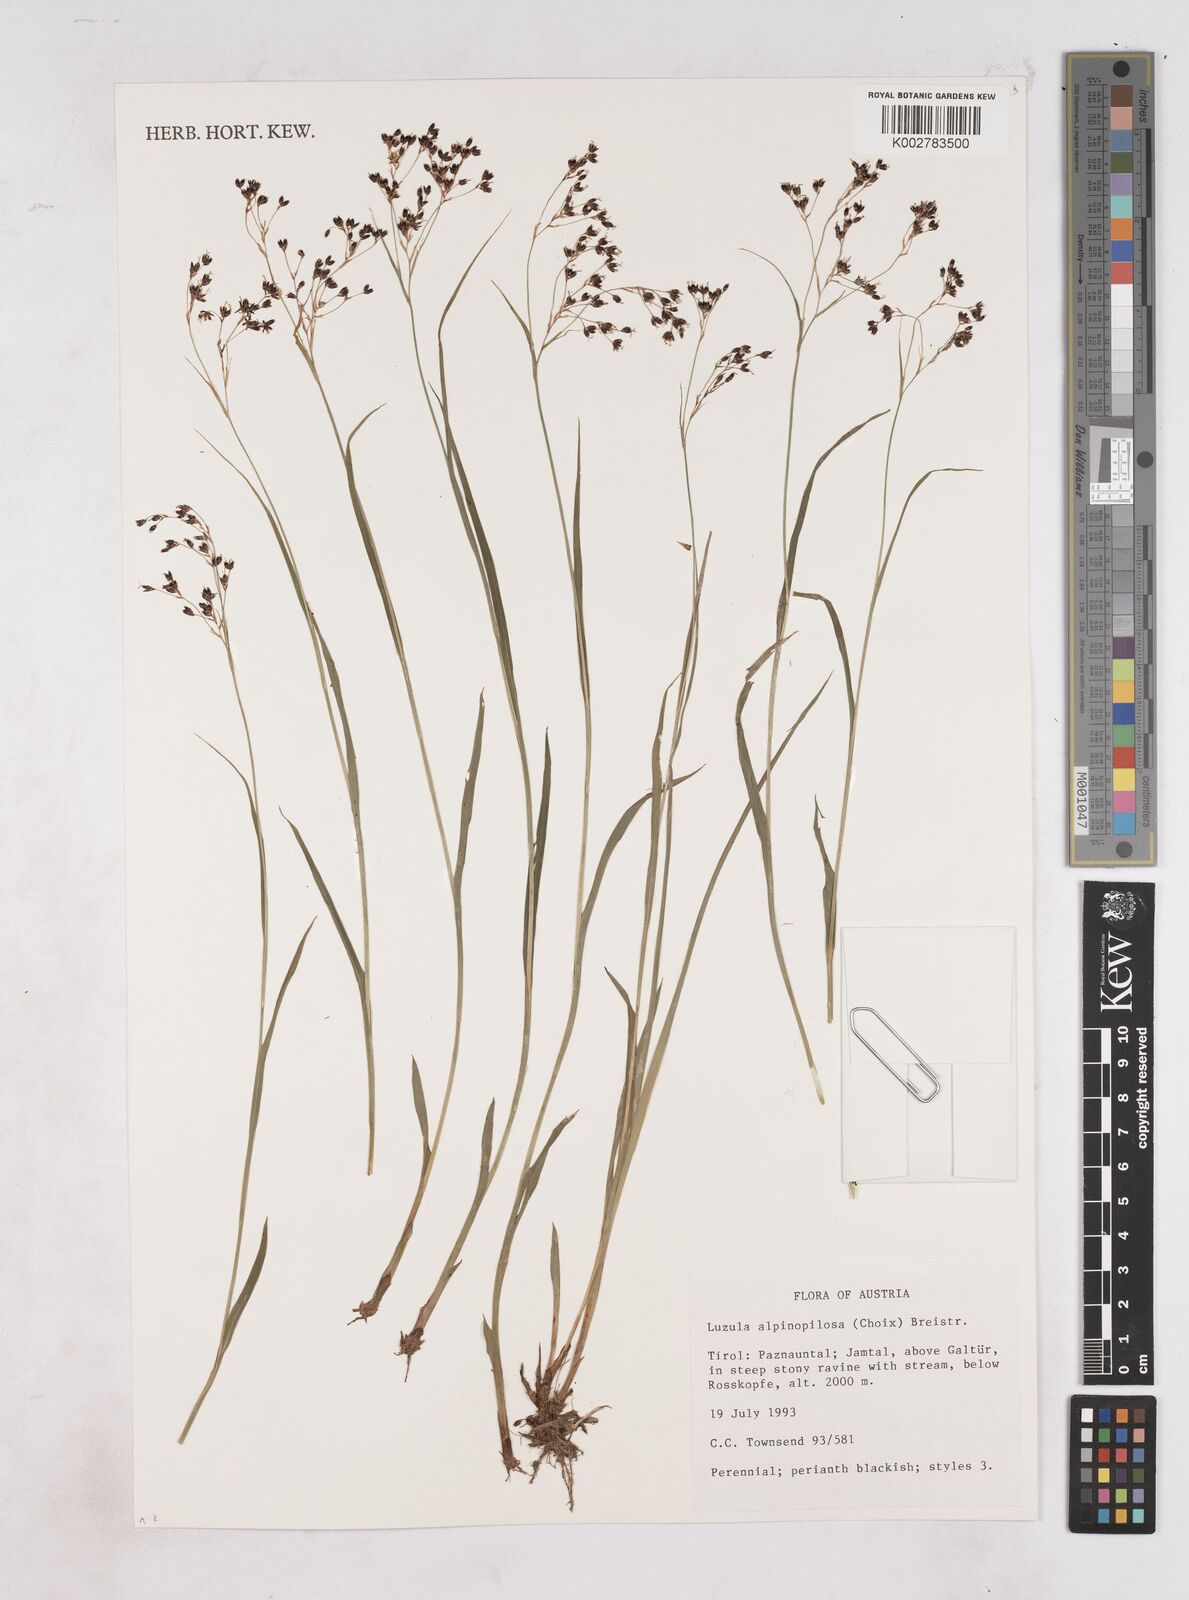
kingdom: Plantae
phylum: Tracheophyta
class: Liliopsida
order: Poales
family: Juncaceae
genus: Luzula
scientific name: Luzula alpinopilosa
